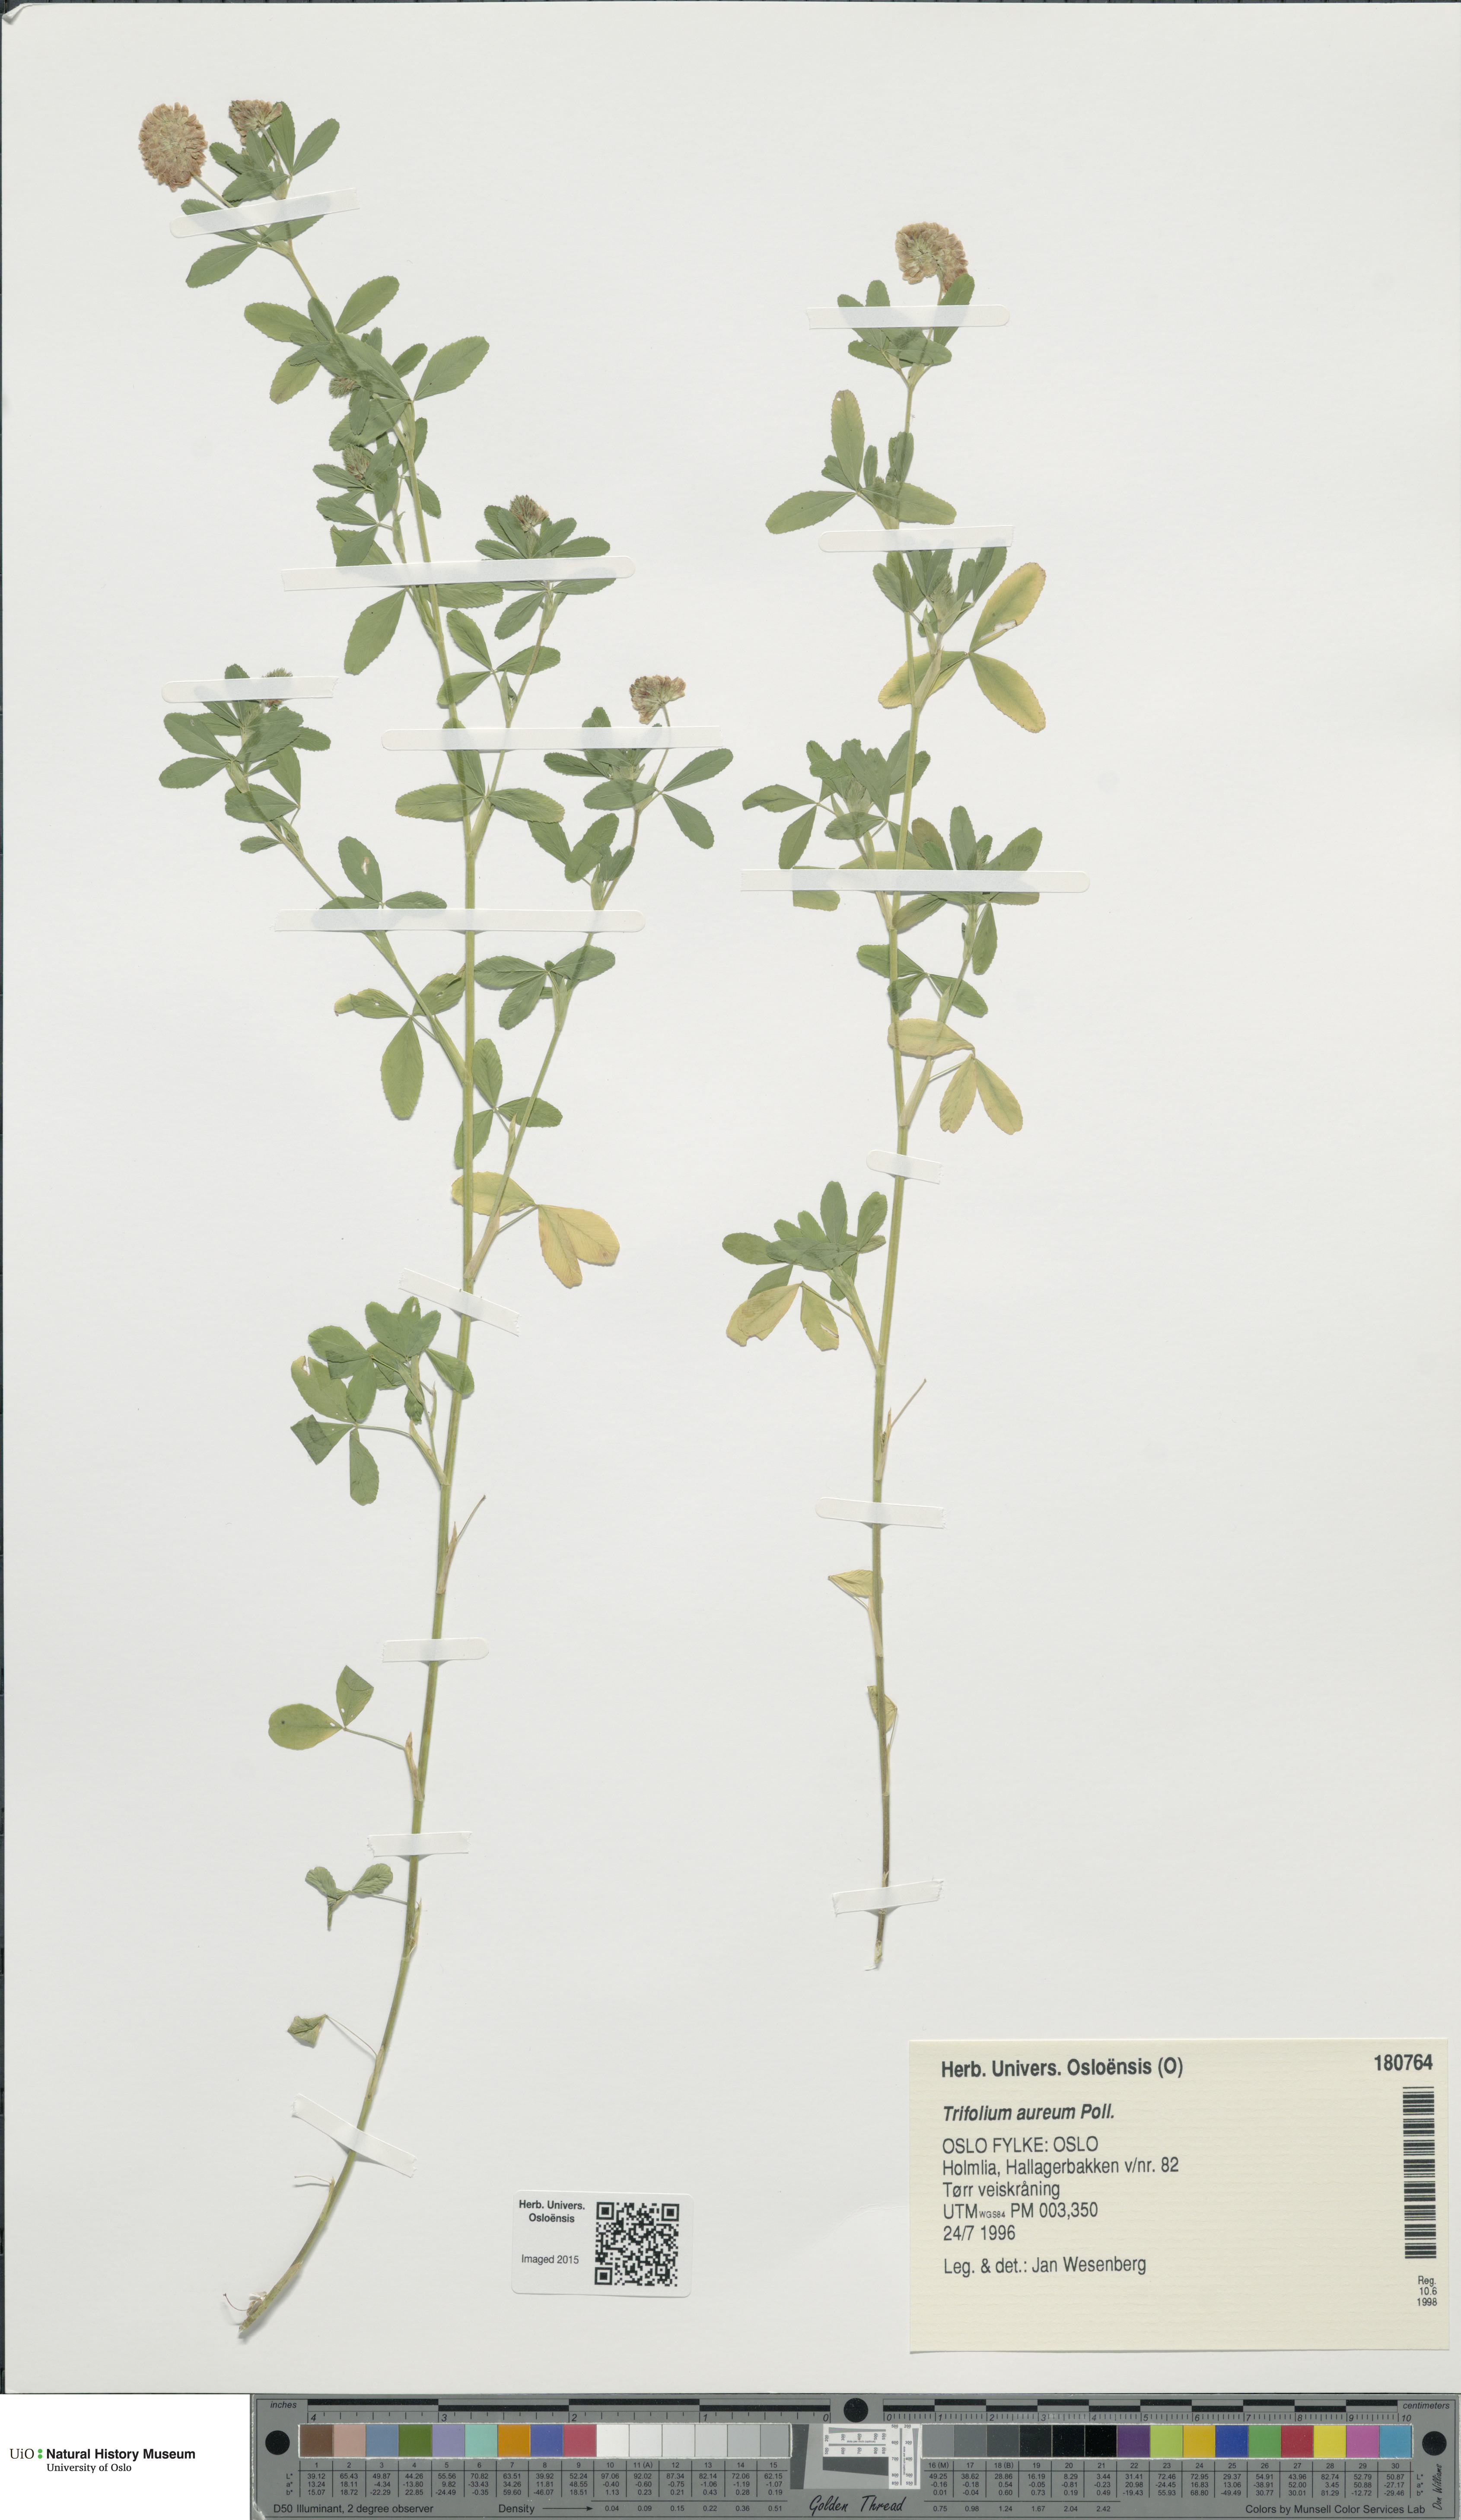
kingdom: Plantae
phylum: Tracheophyta
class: Magnoliopsida
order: Fabales
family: Fabaceae
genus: Trifolium
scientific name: Trifolium aureum
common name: Golden clover
